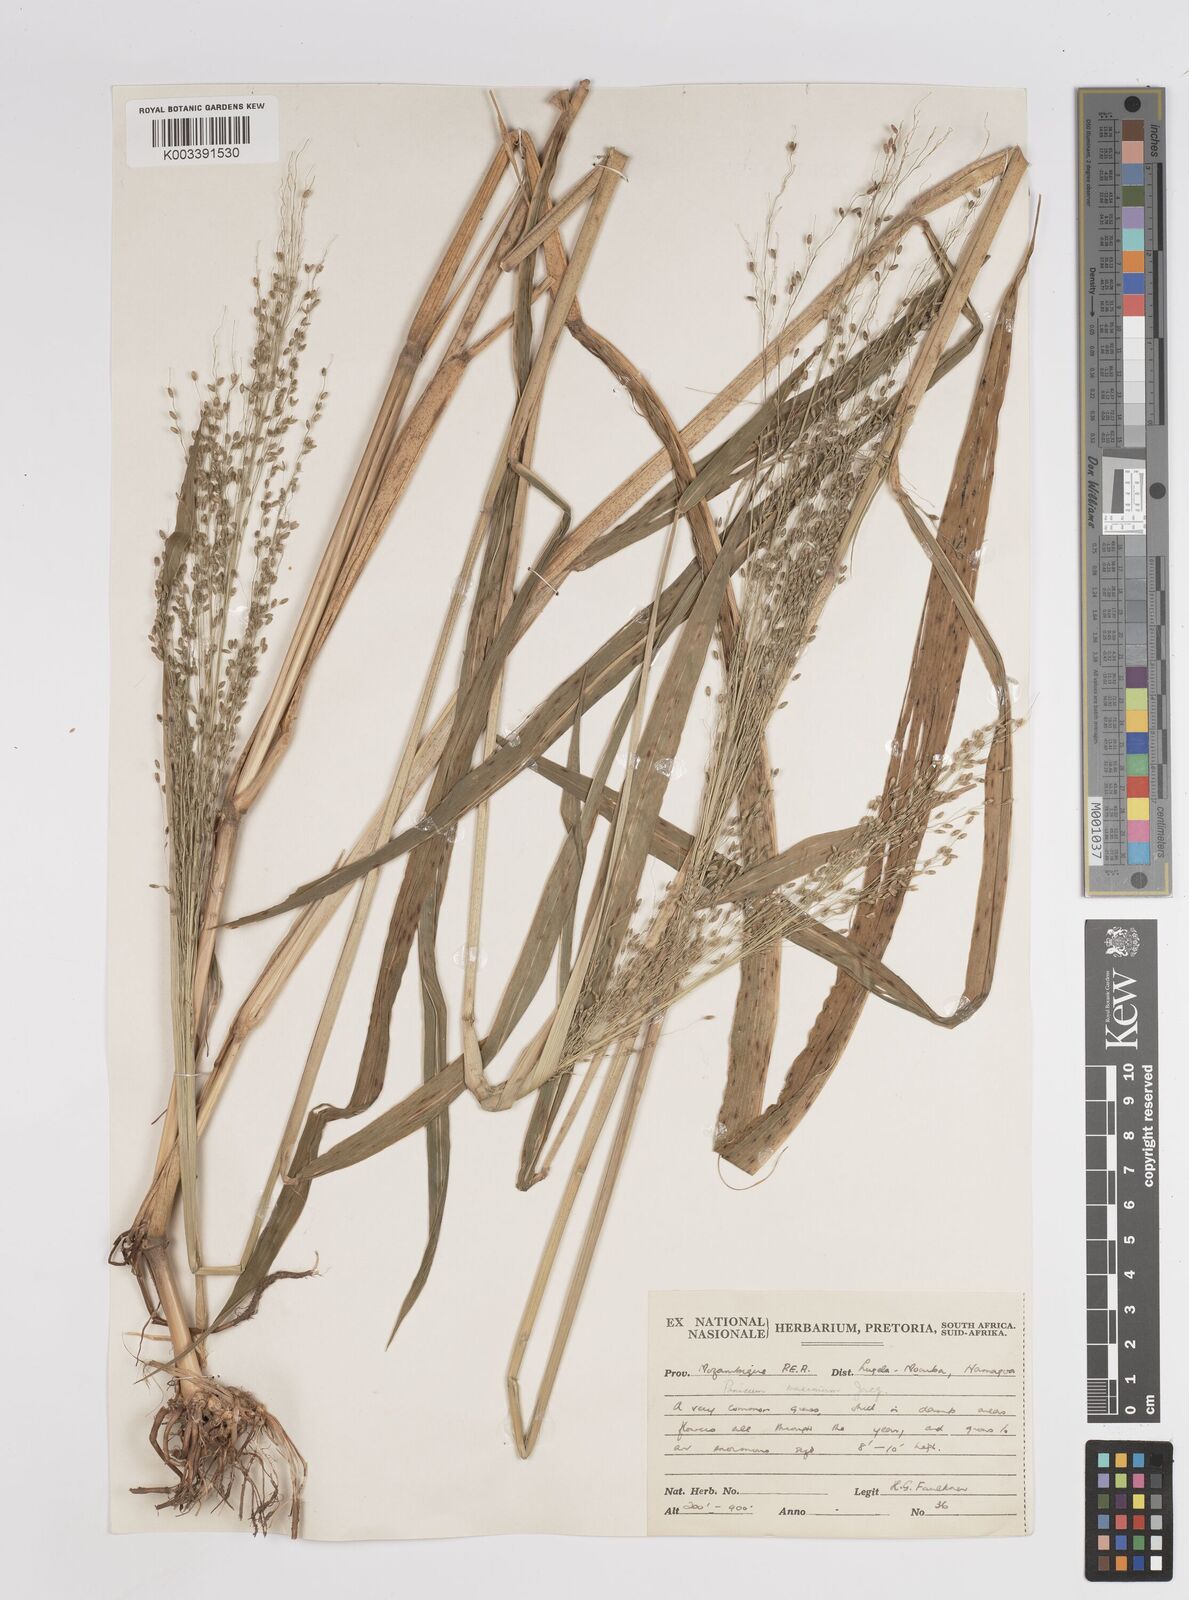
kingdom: Plantae
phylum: Tracheophyta
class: Liliopsida
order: Poales
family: Poaceae
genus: Megathyrsus
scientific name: Megathyrsus maximus
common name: Guineagrass
